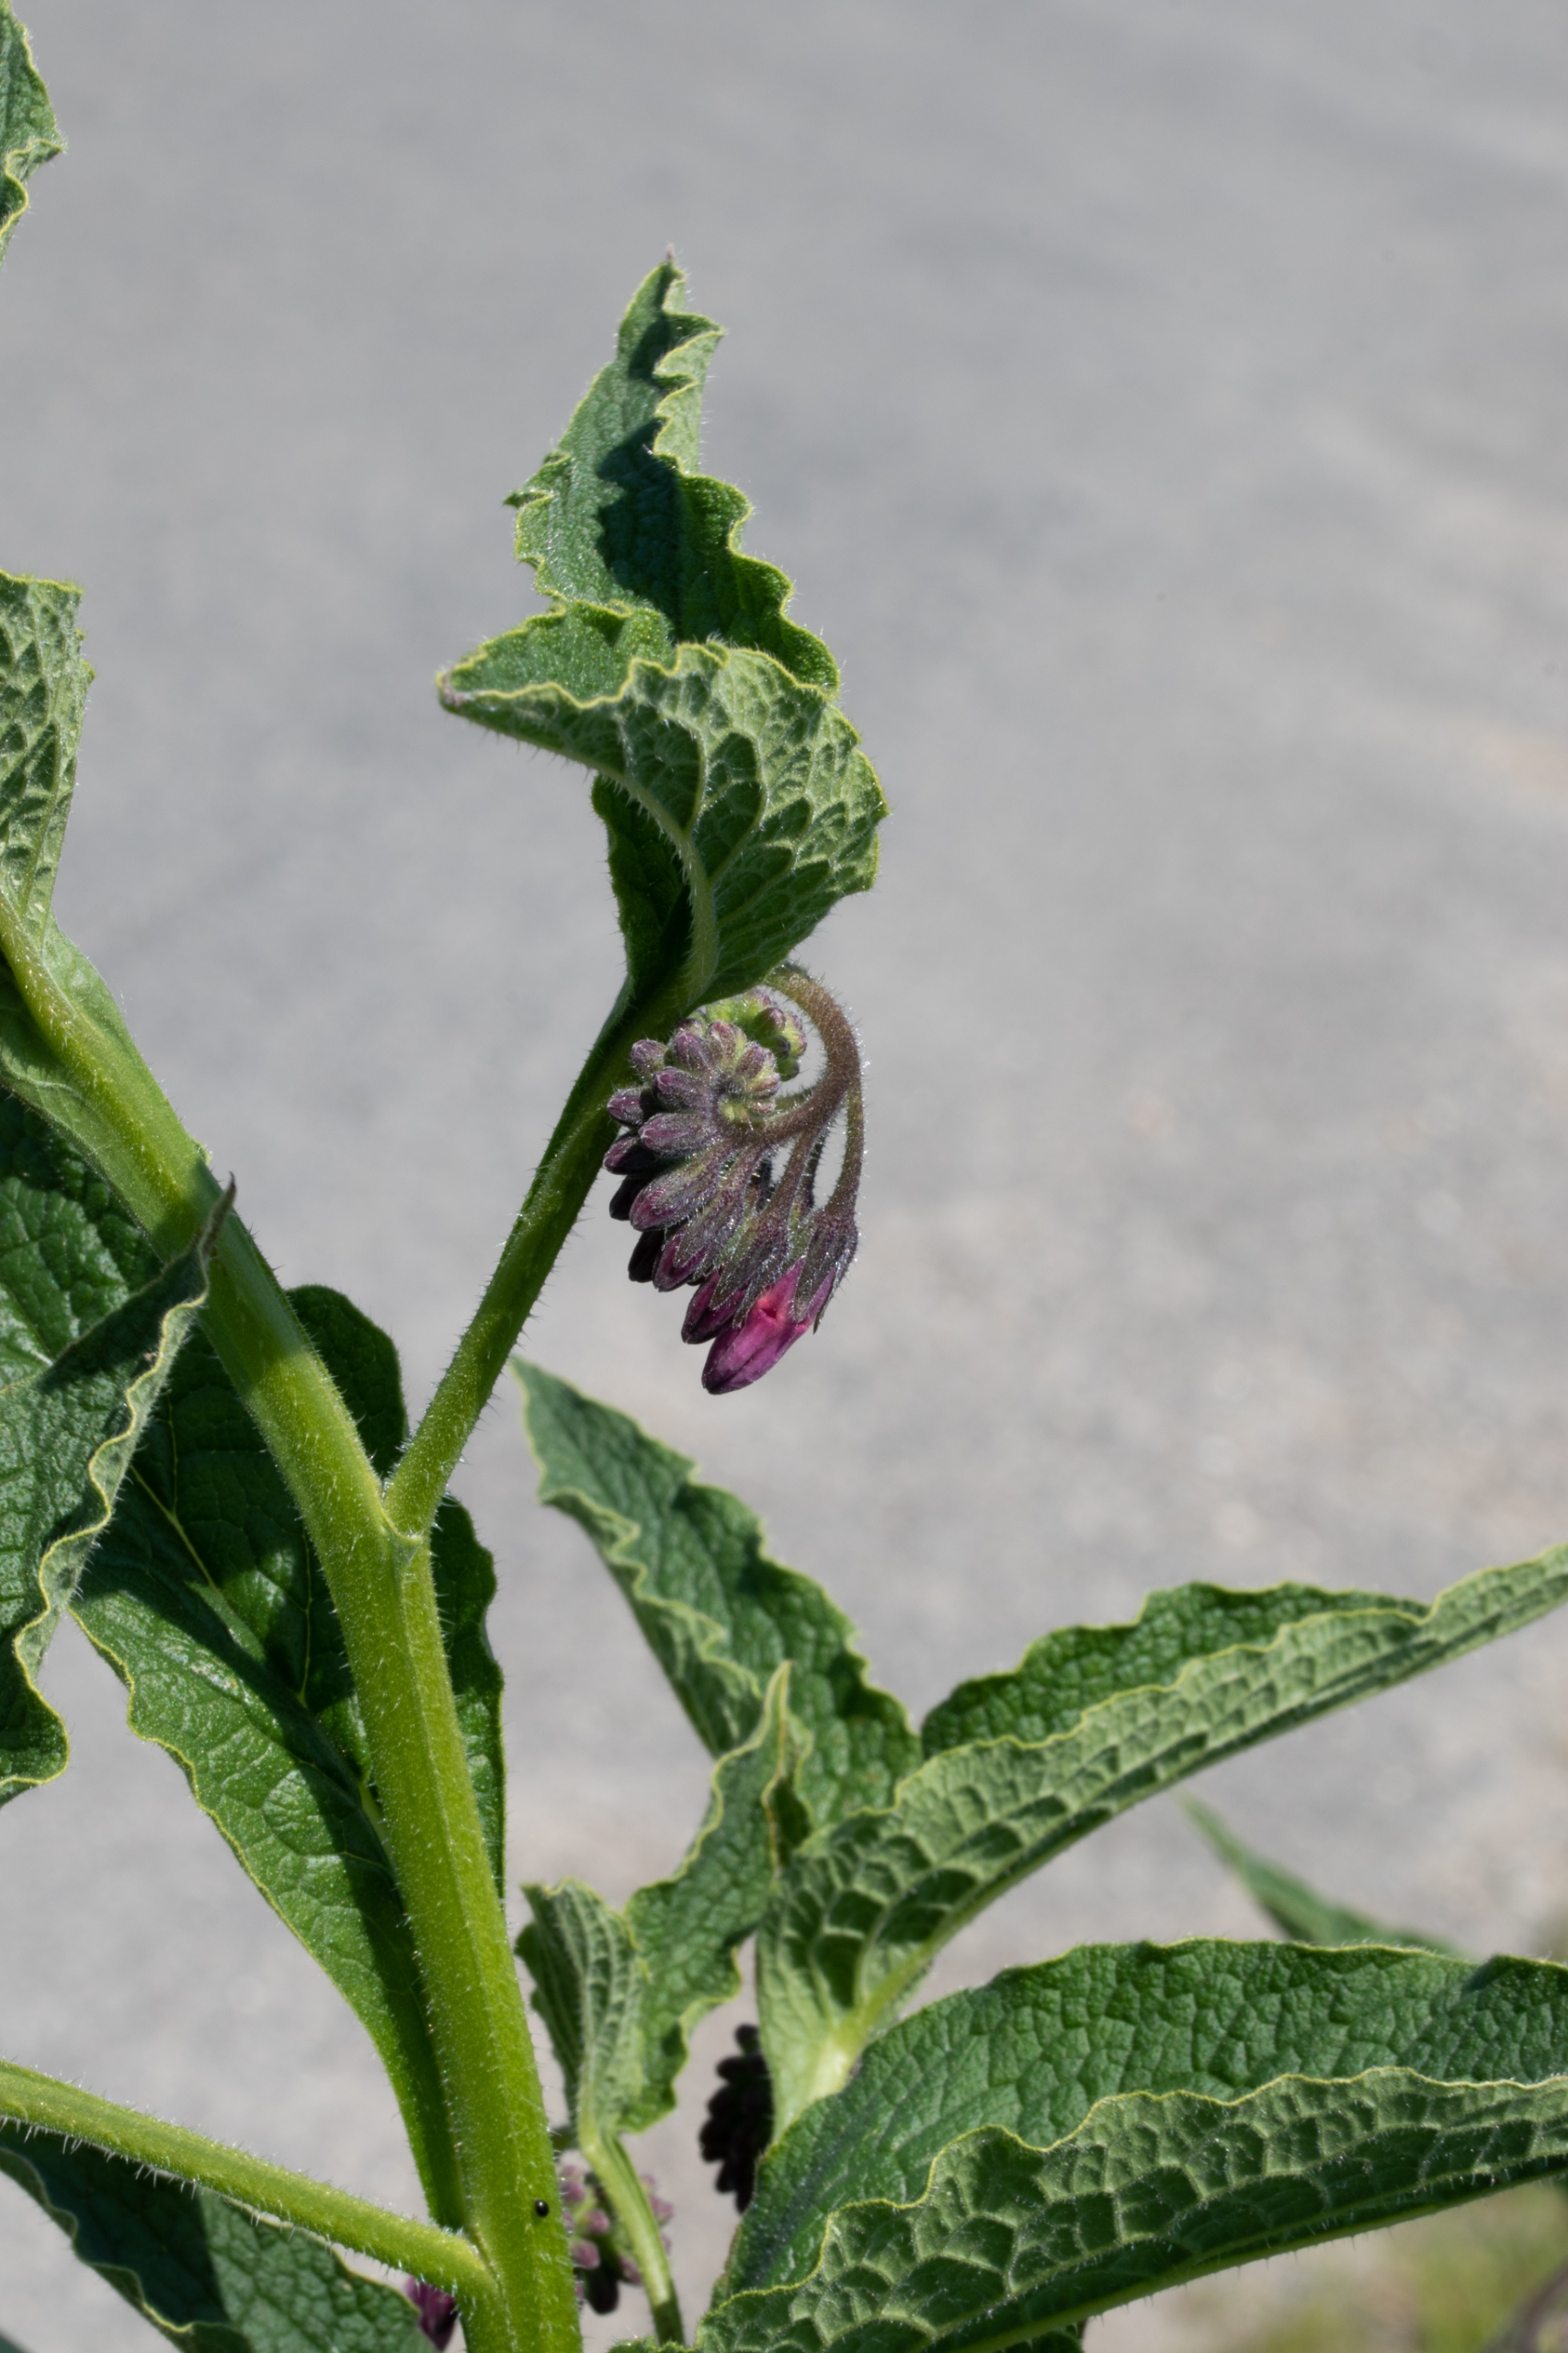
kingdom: Plantae
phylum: Tracheophyta
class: Magnoliopsida
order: Boraginales
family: Boraginaceae
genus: Symphytum
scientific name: Symphytum uplandicum
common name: Foder-kulsukker
